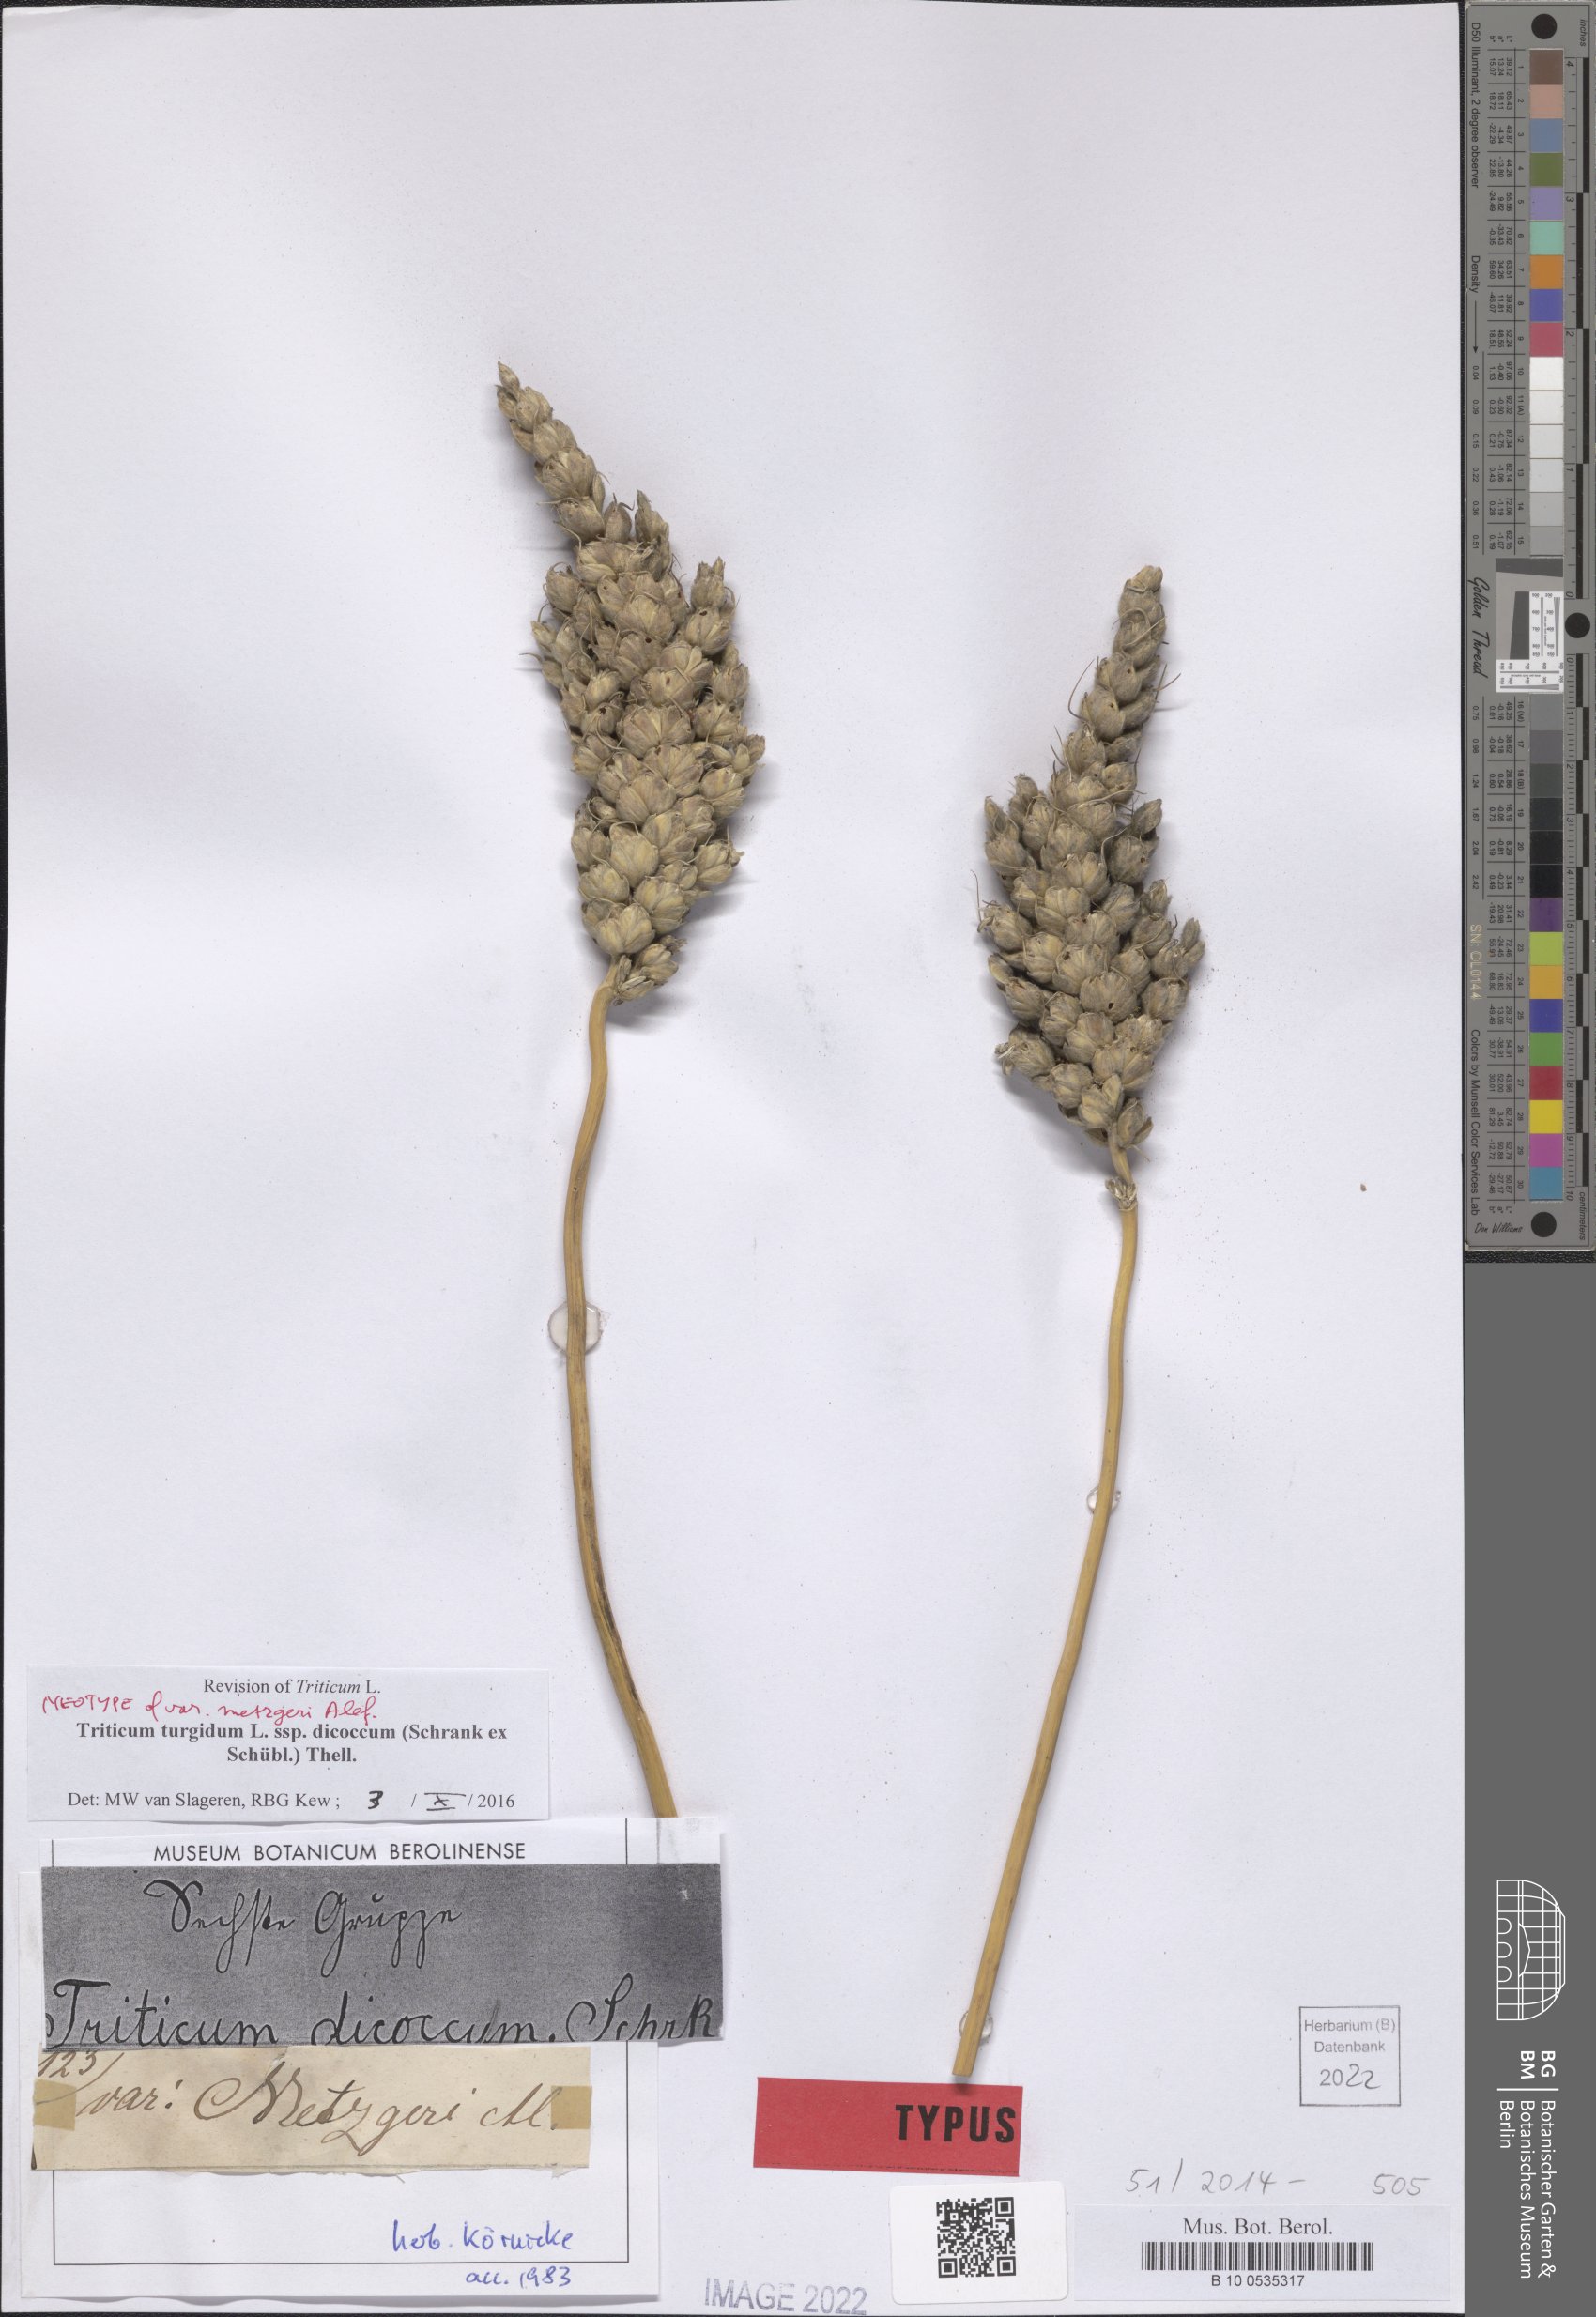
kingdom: Plantae
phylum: Tracheophyta
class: Liliopsida
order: Poales
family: Poaceae
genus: Triticum
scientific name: Triticum turgidum
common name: Rivet wheat
